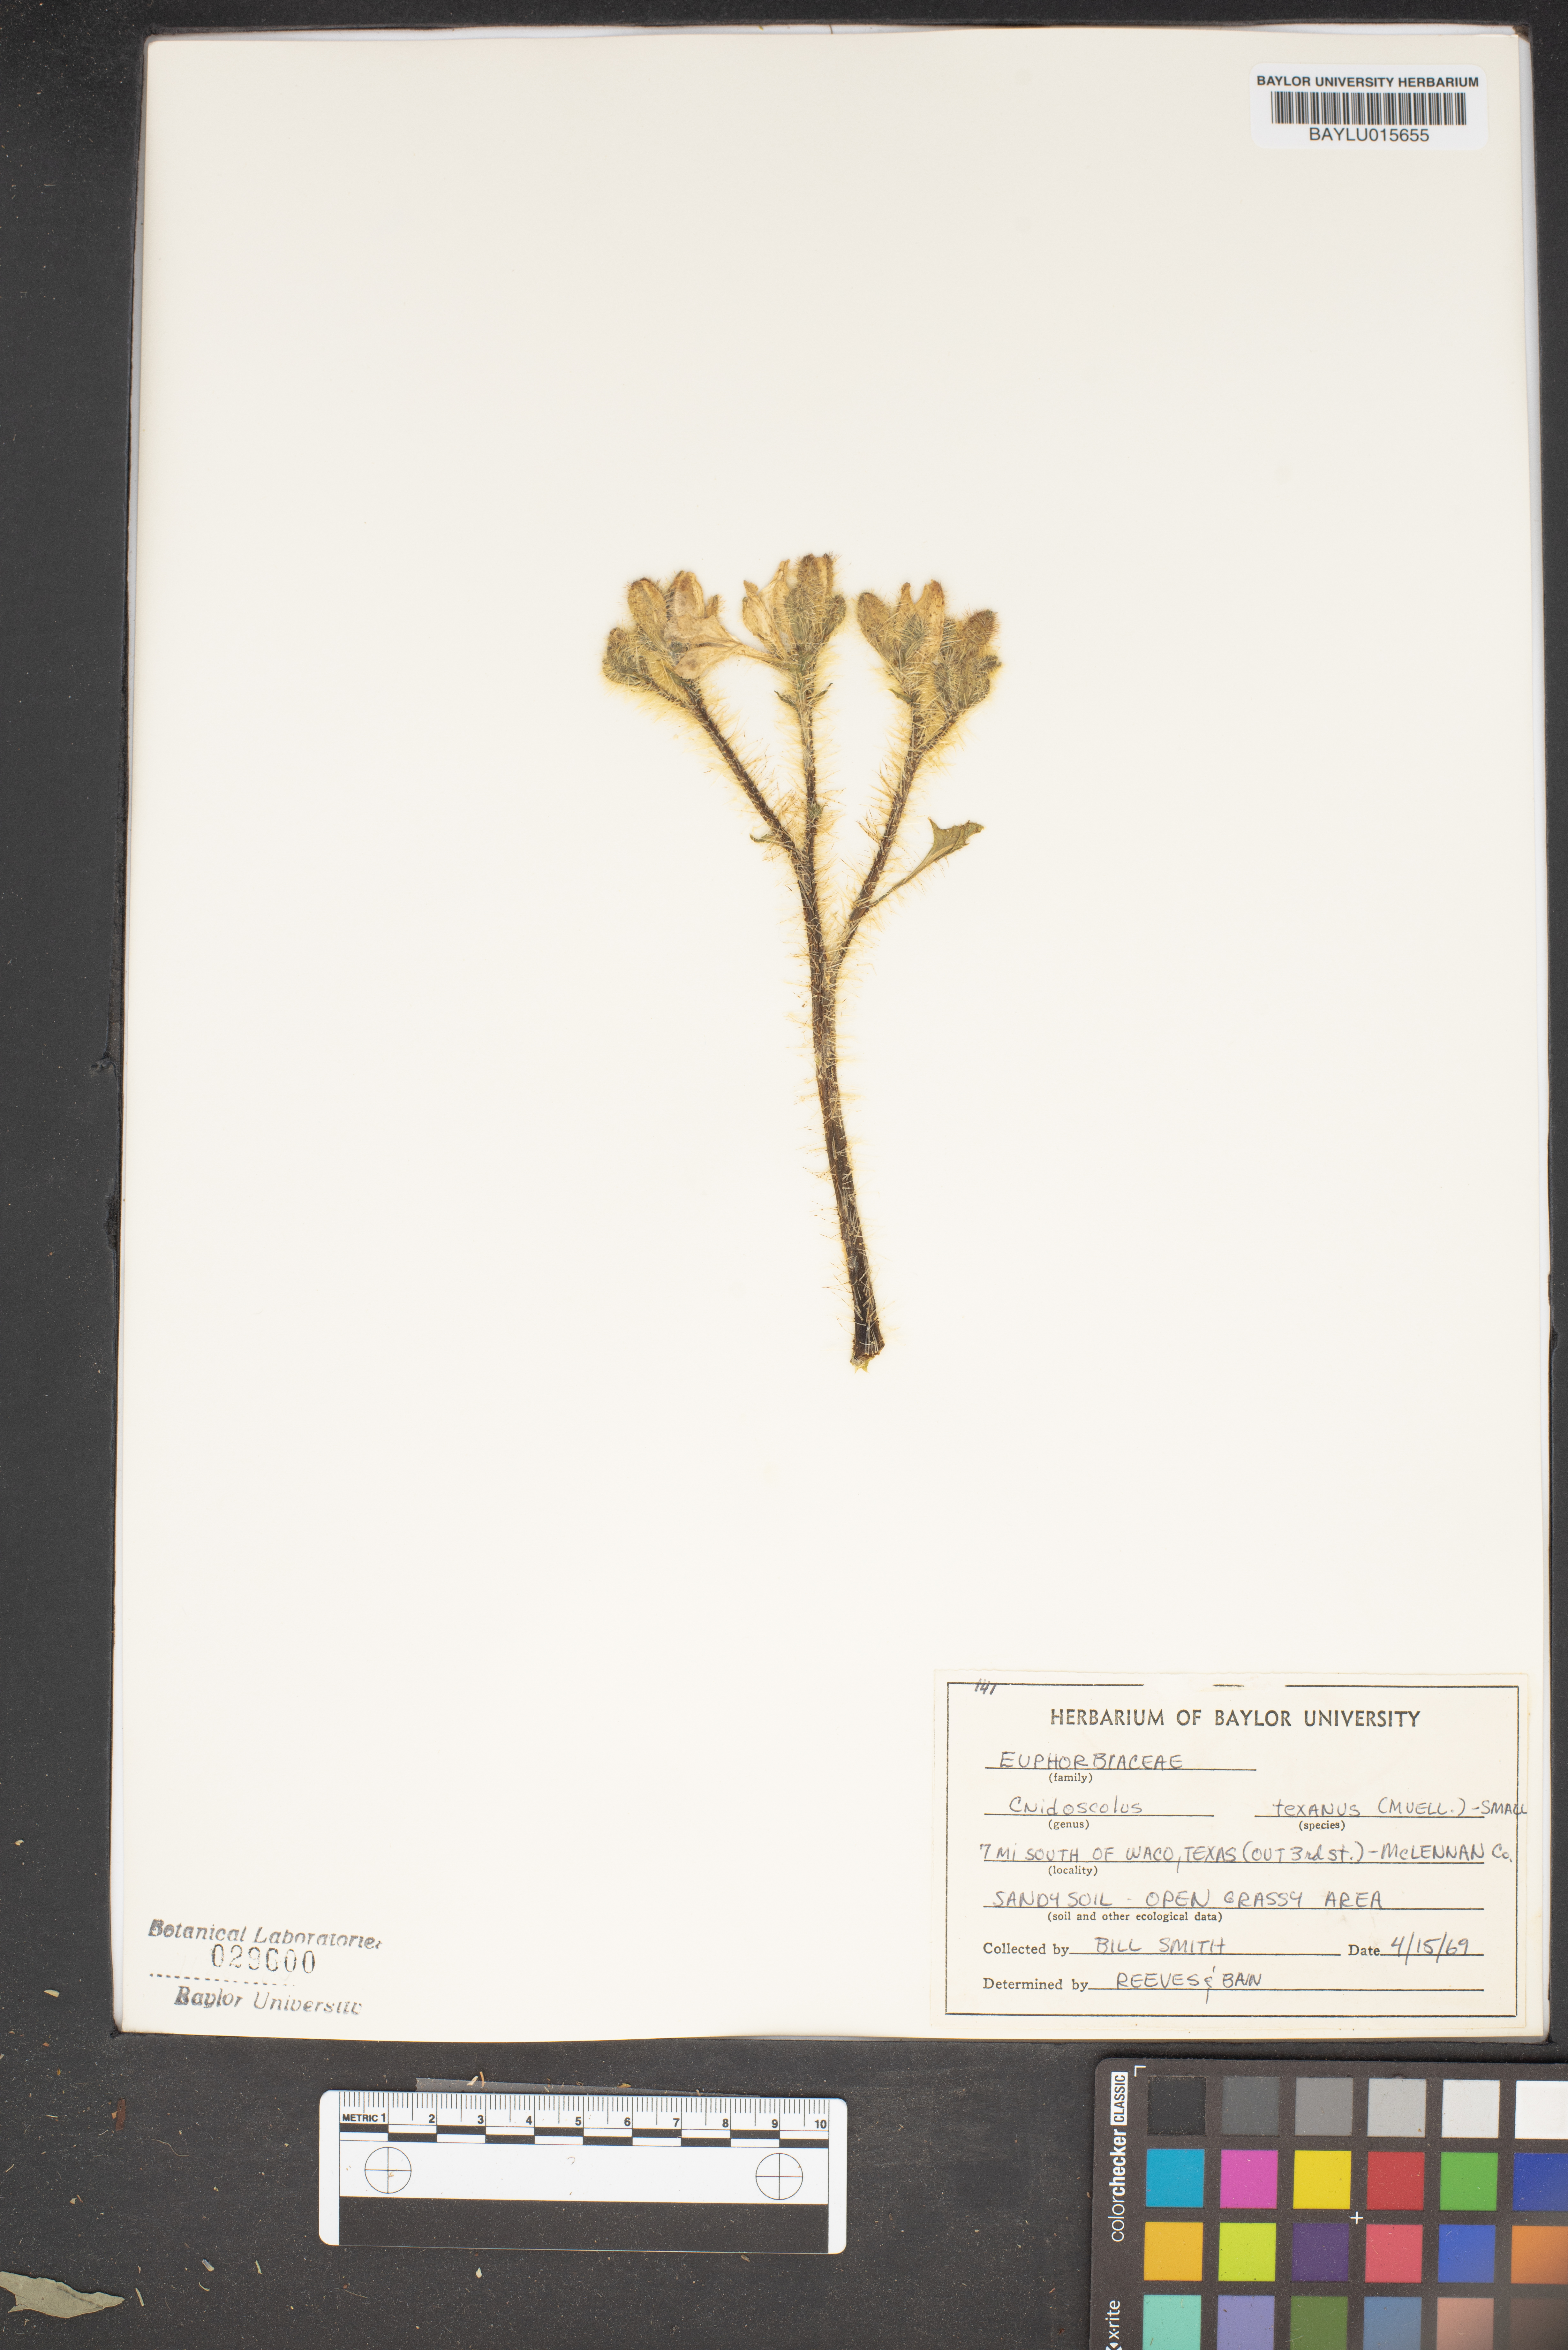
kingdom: Plantae
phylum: Tracheophyta
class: Magnoliopsida
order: Malpighiales
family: Euphorbiaceae
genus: Cnidoscolus
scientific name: Cnidoscolus texanus
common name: Texas bull-nettle
